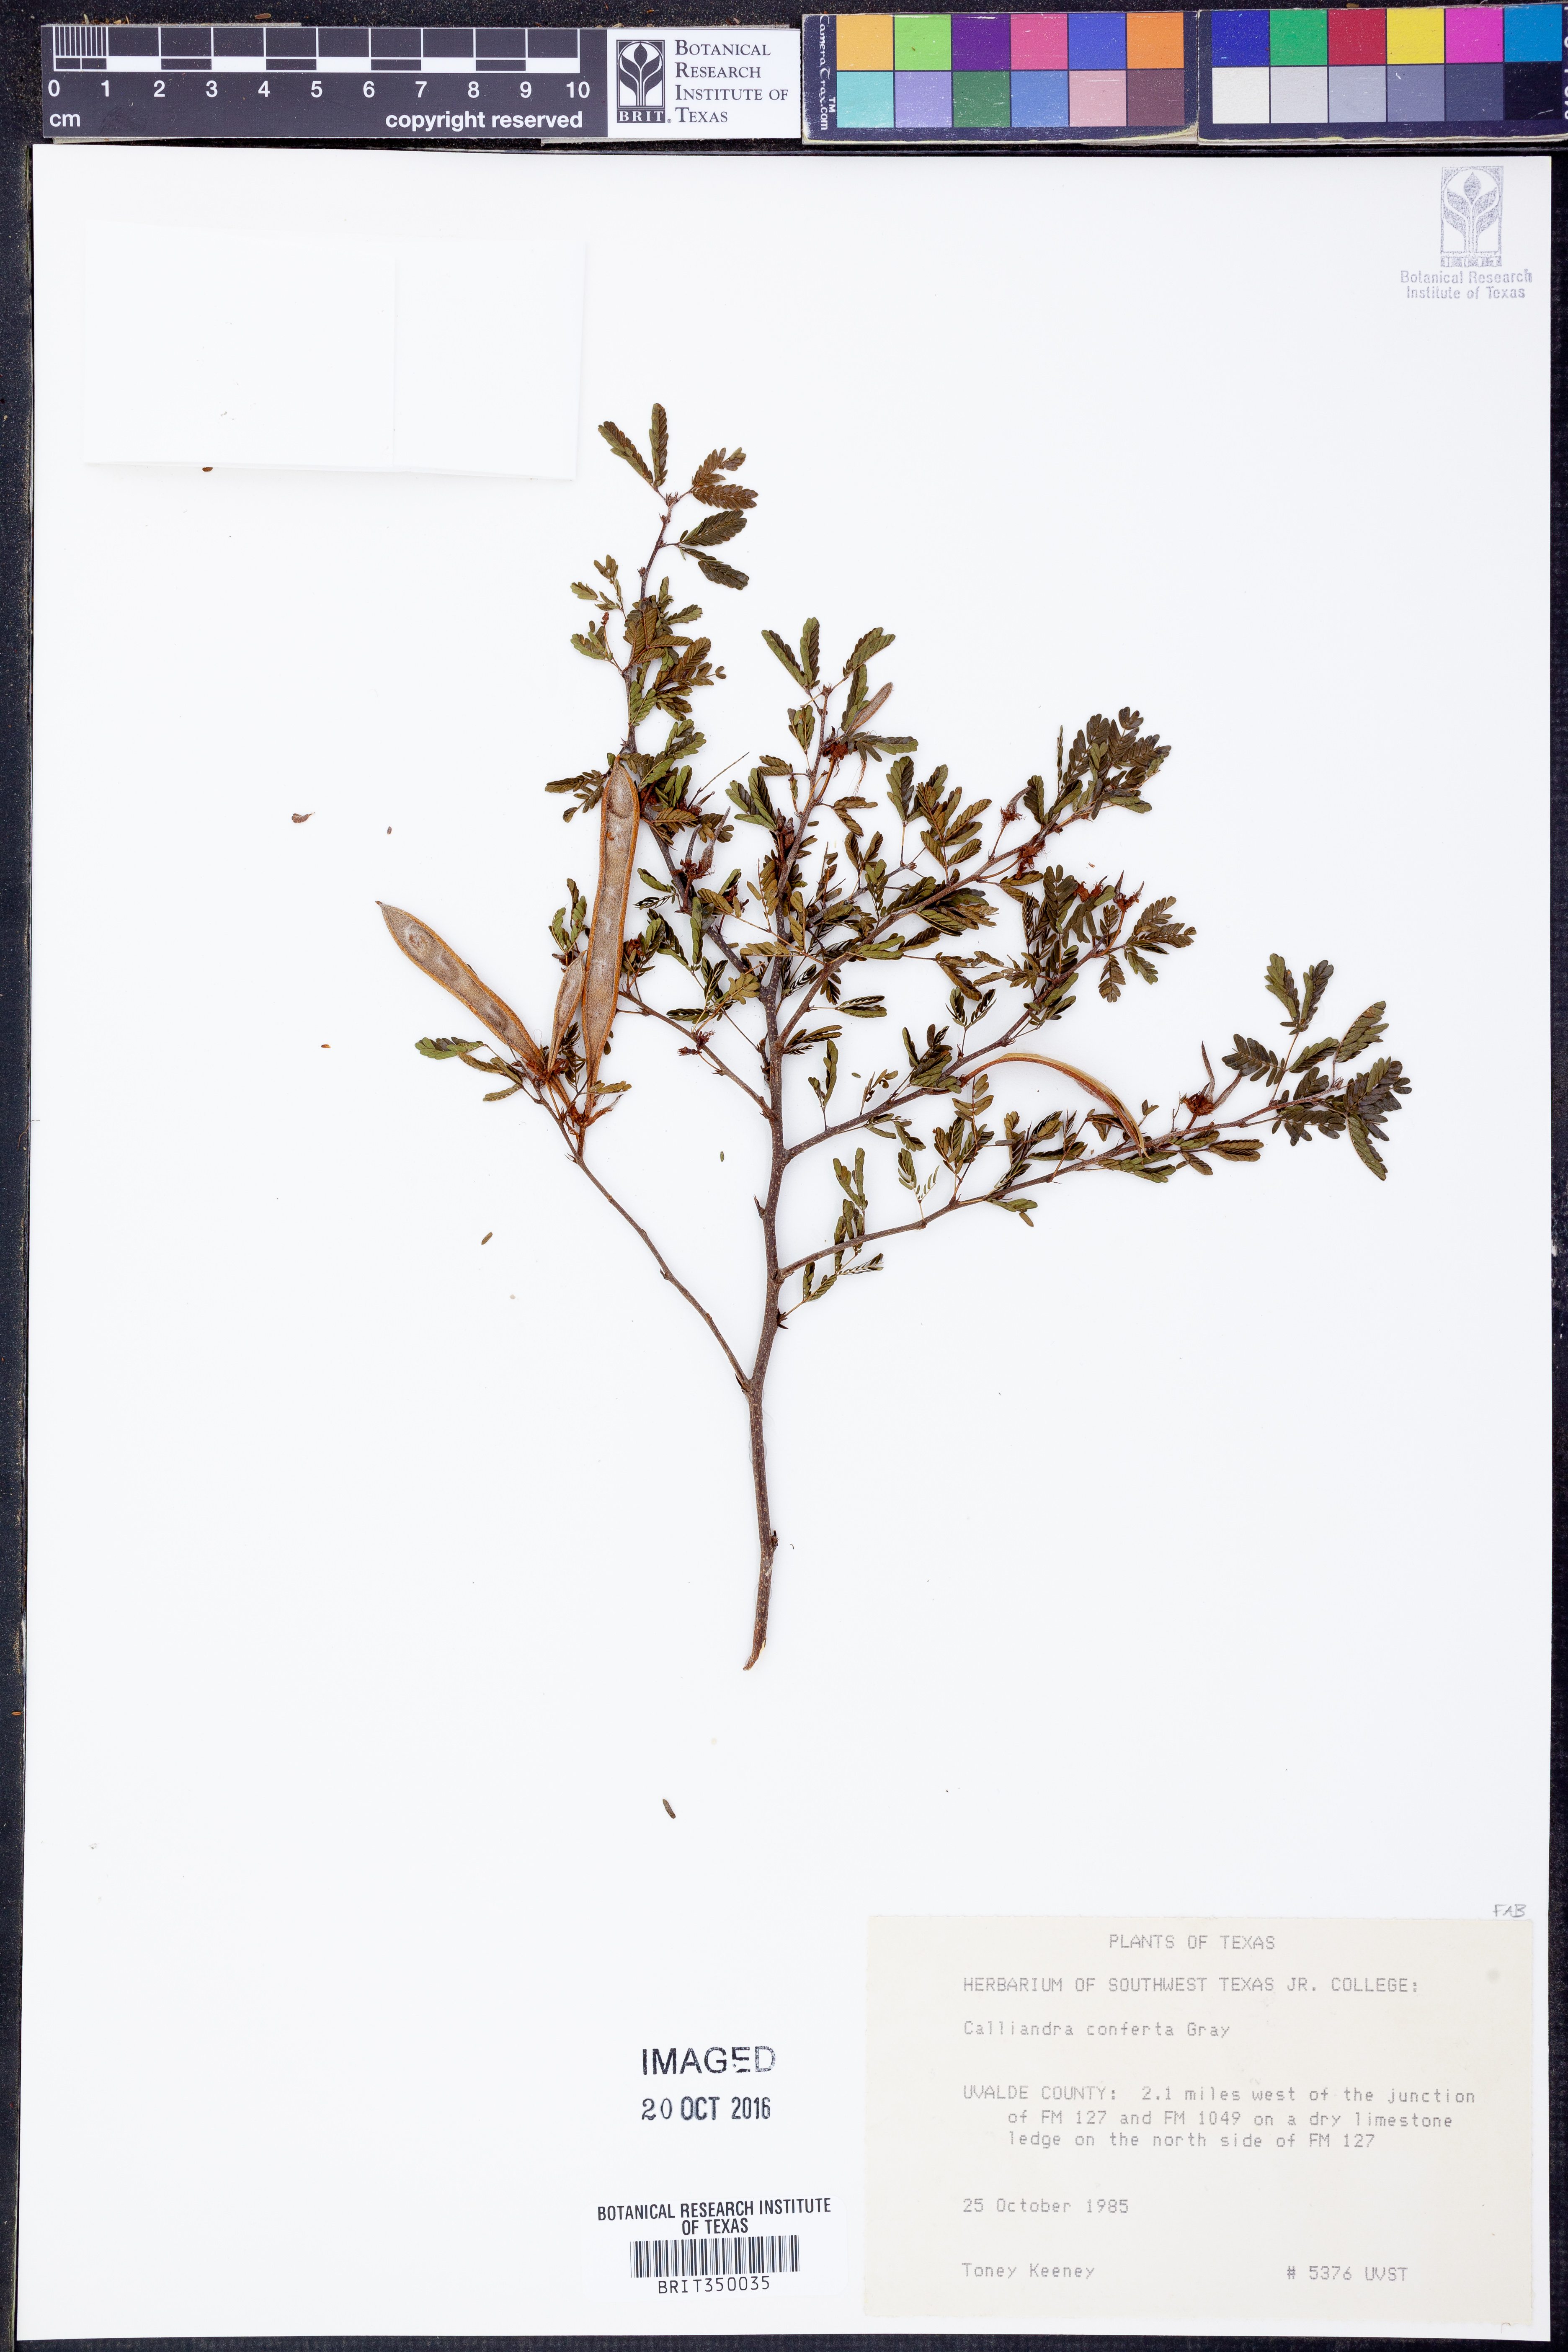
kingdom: Plantae
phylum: Tracheophyta
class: Magnoliopsida
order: Fabales
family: Fabaceae
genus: Calliandra
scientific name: Calliandra conferta
